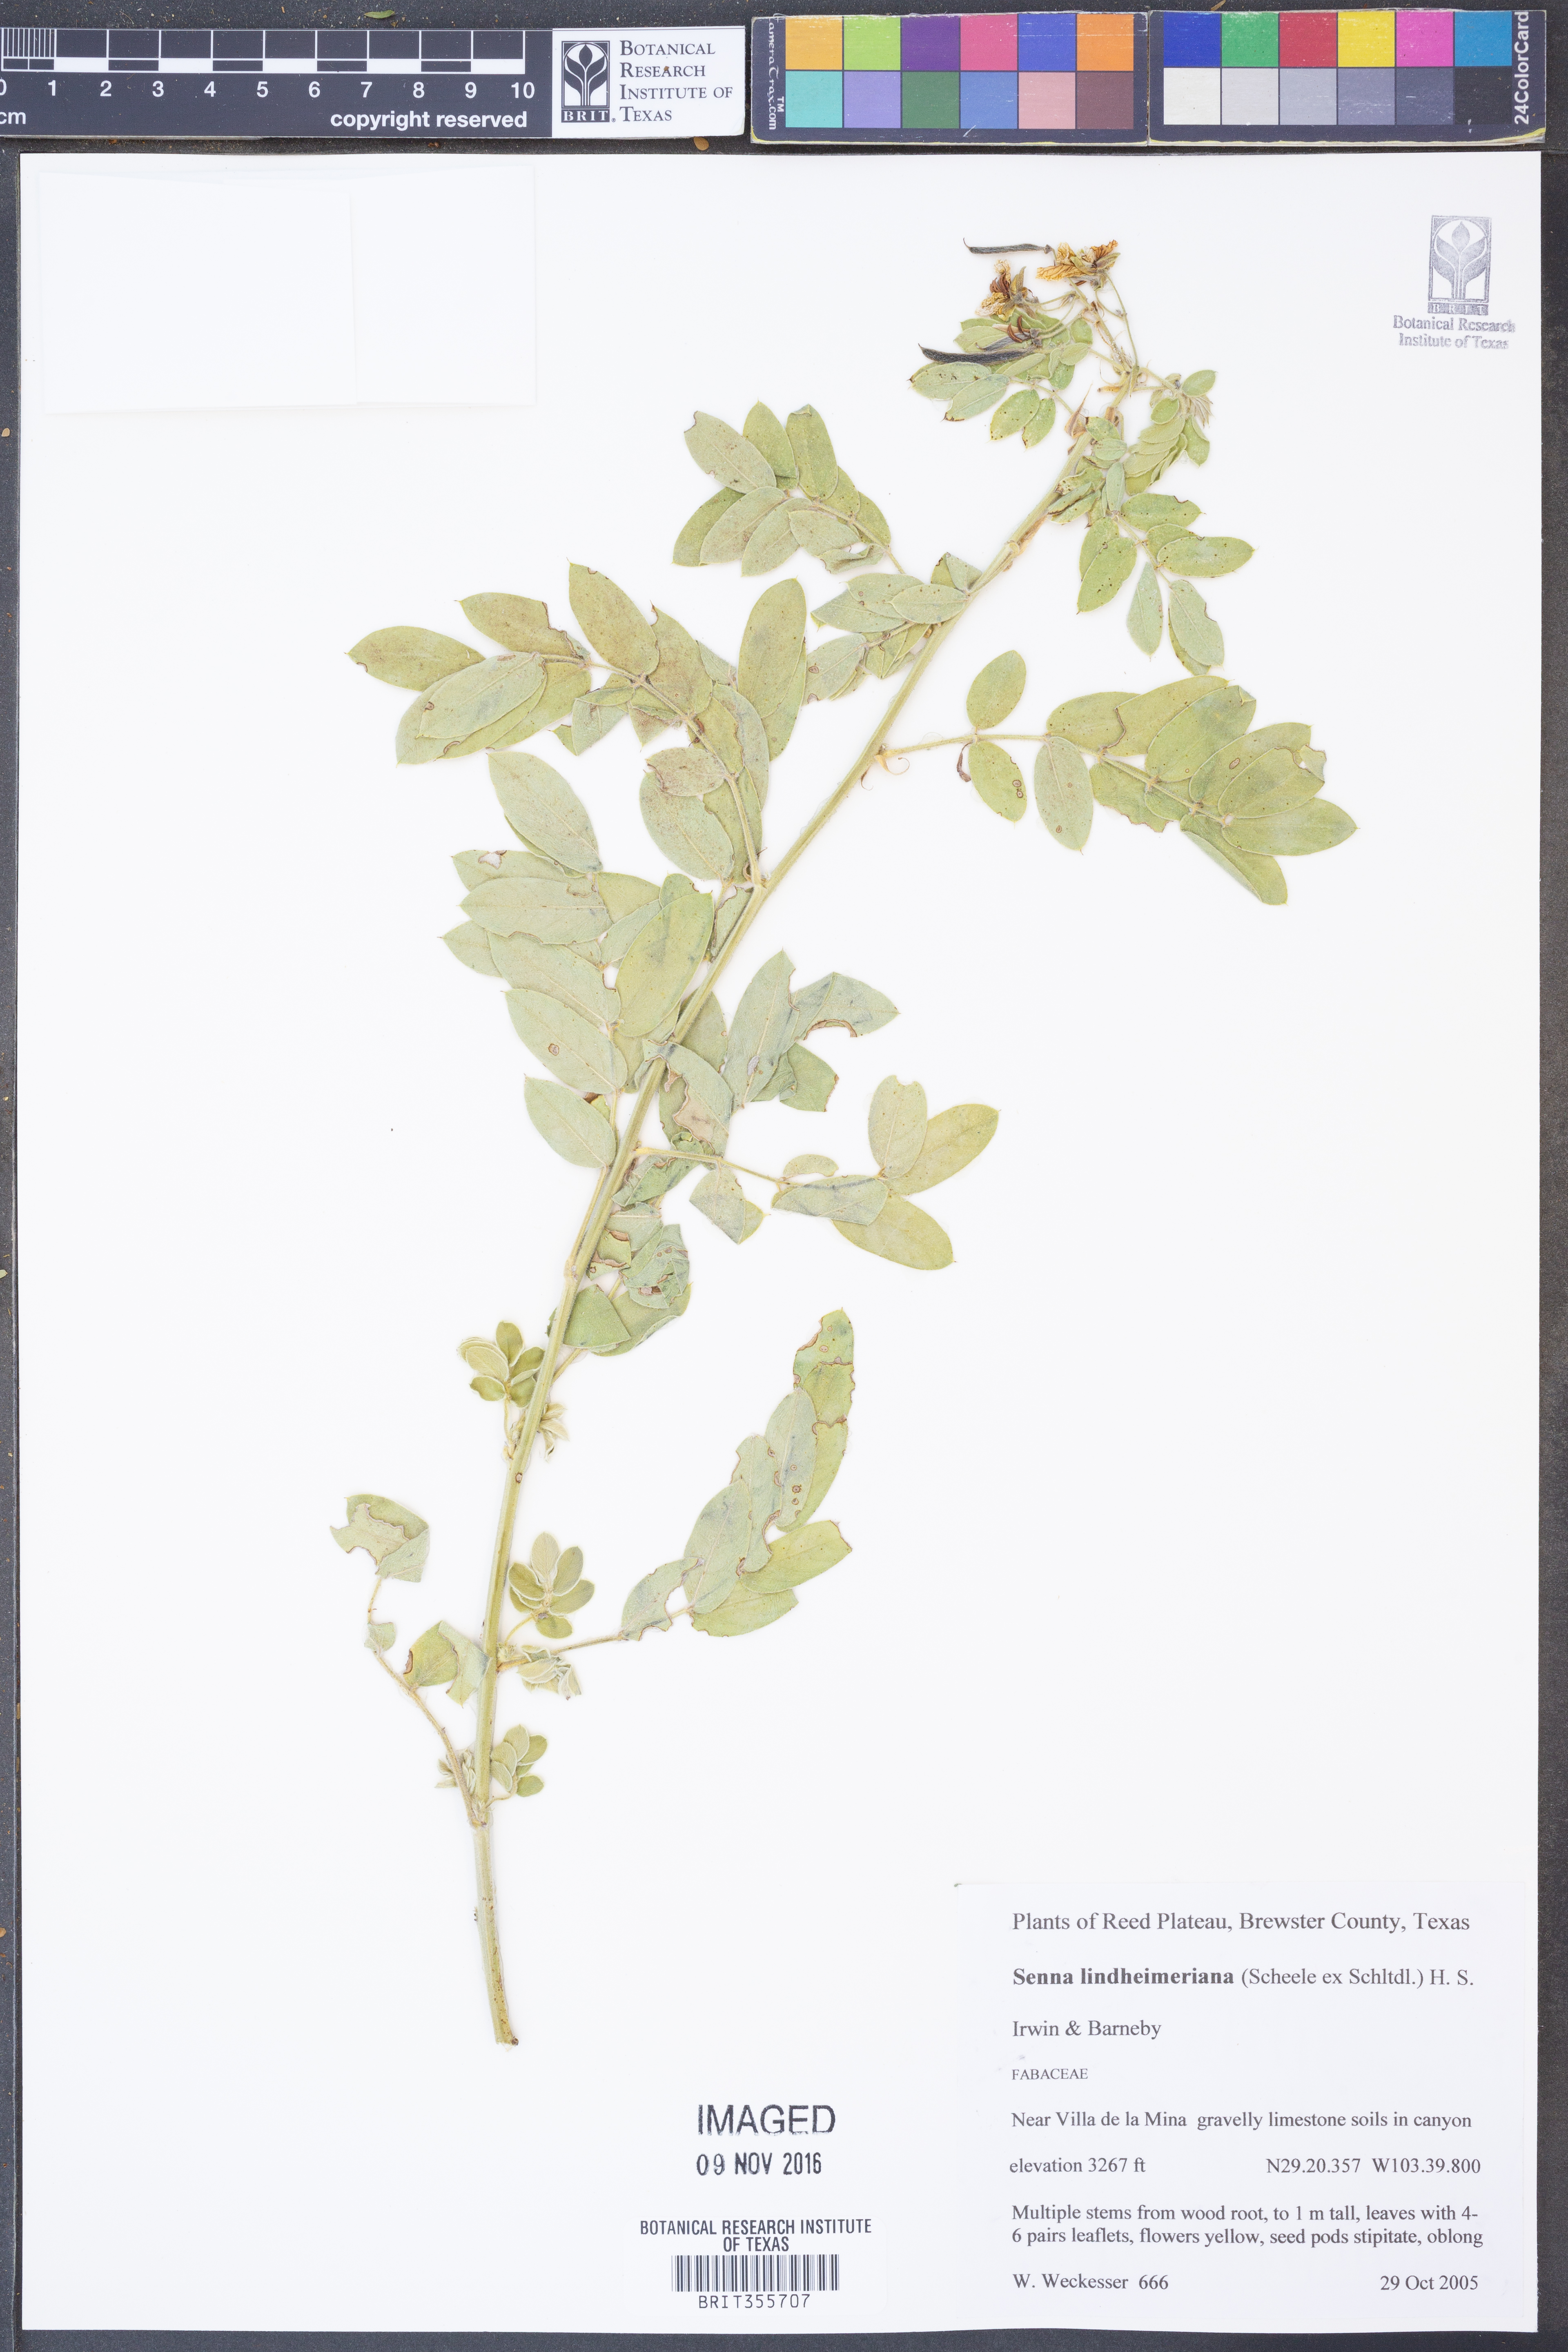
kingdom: Plantae
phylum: Tracheophyta
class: Magnoliopsida
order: Fabales
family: Fabaceae
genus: Senna
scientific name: Senna lindheimeriana
